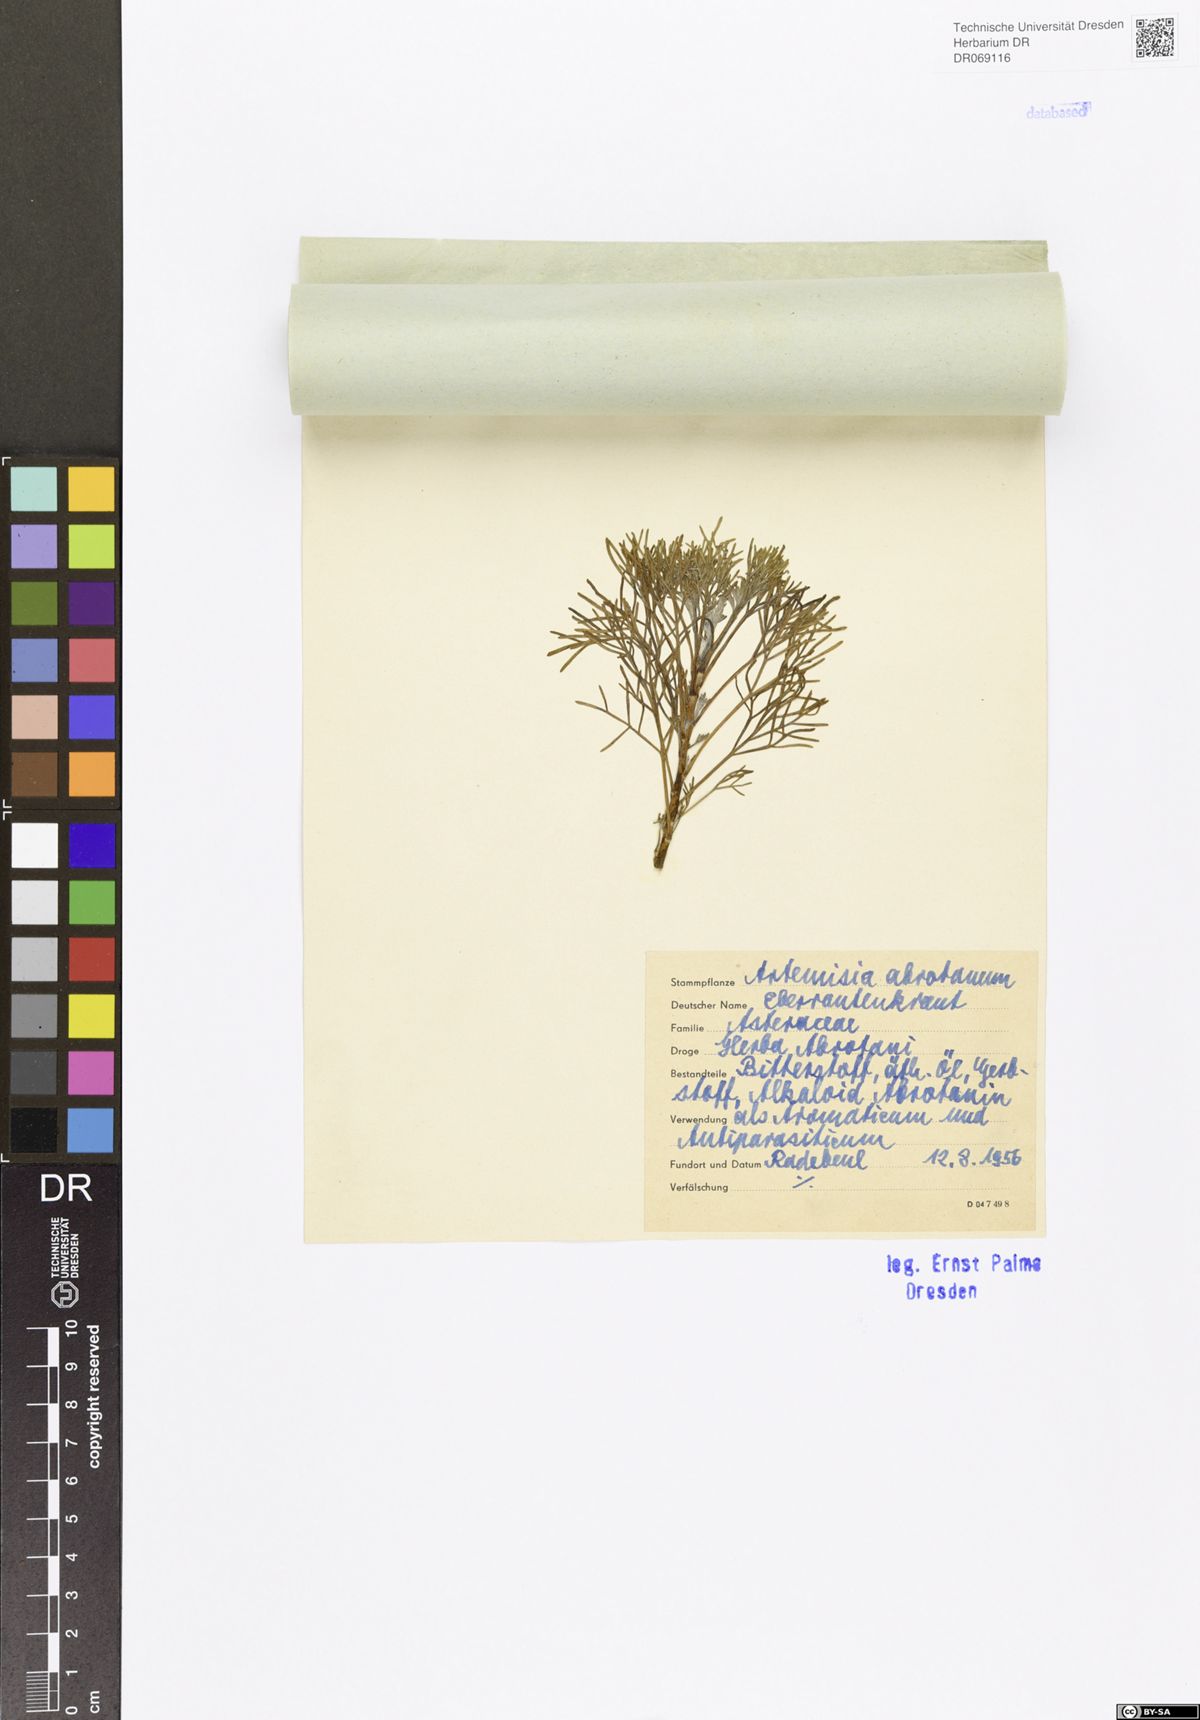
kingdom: Plantae
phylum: Tracheophyta
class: Magnoliopsida
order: Asterales
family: Asteraceae
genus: Artemisia
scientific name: Artemisia abrotanum
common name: Southernwood
